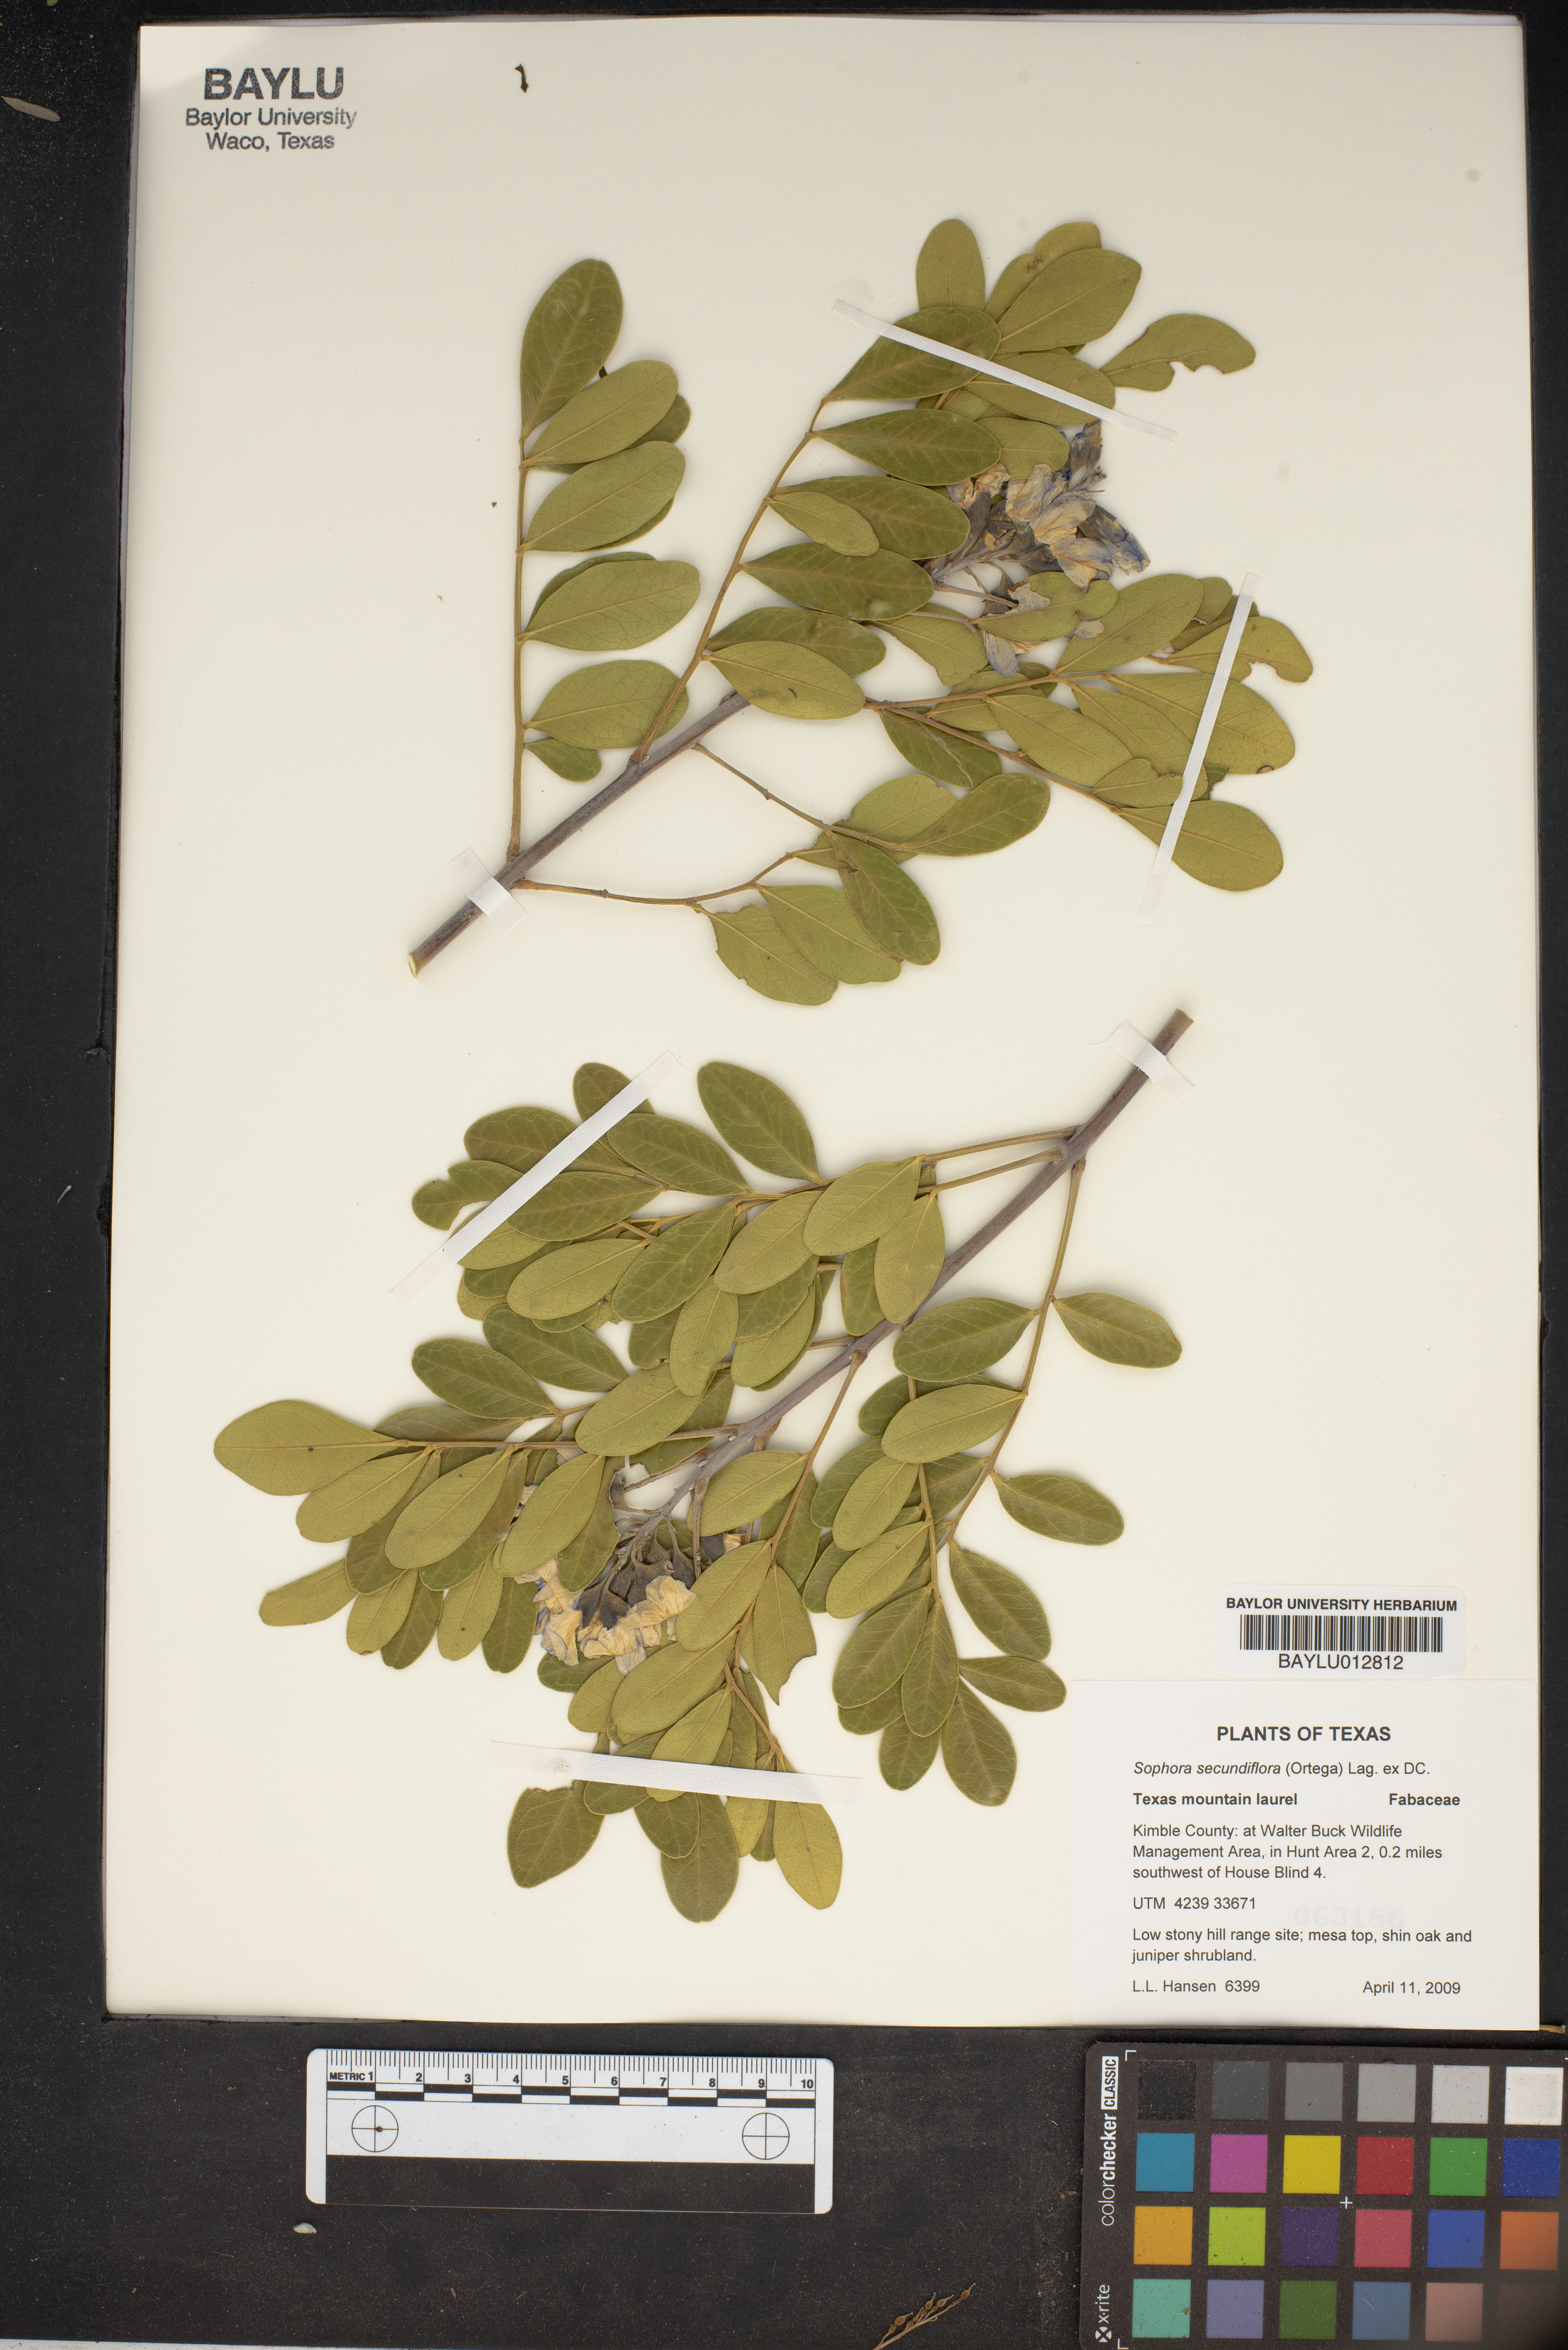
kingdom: Plantae
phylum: Tracheophyta
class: Magnoliopsida
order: Fabales
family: Fabaceae
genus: Dermatophyllum
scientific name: Dermatophyllum secundiflorum
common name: Texas-mountain-laurel
